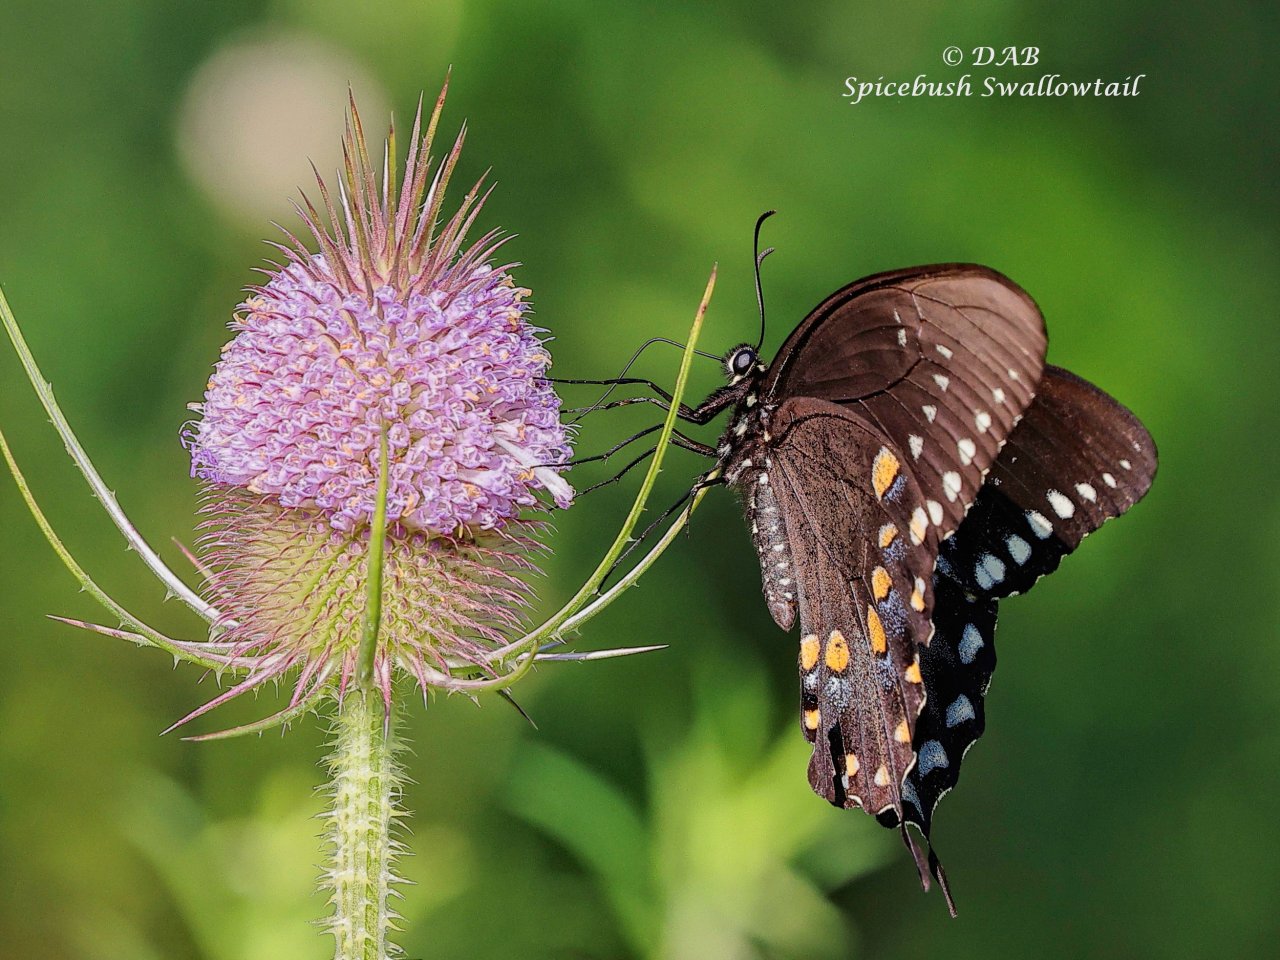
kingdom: Animalia
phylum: Arthropoda
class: Insecta
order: Lepidoptera
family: Papilionidae
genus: Pterourus
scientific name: Pterourus troilus
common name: Spicebush Swallowtail
